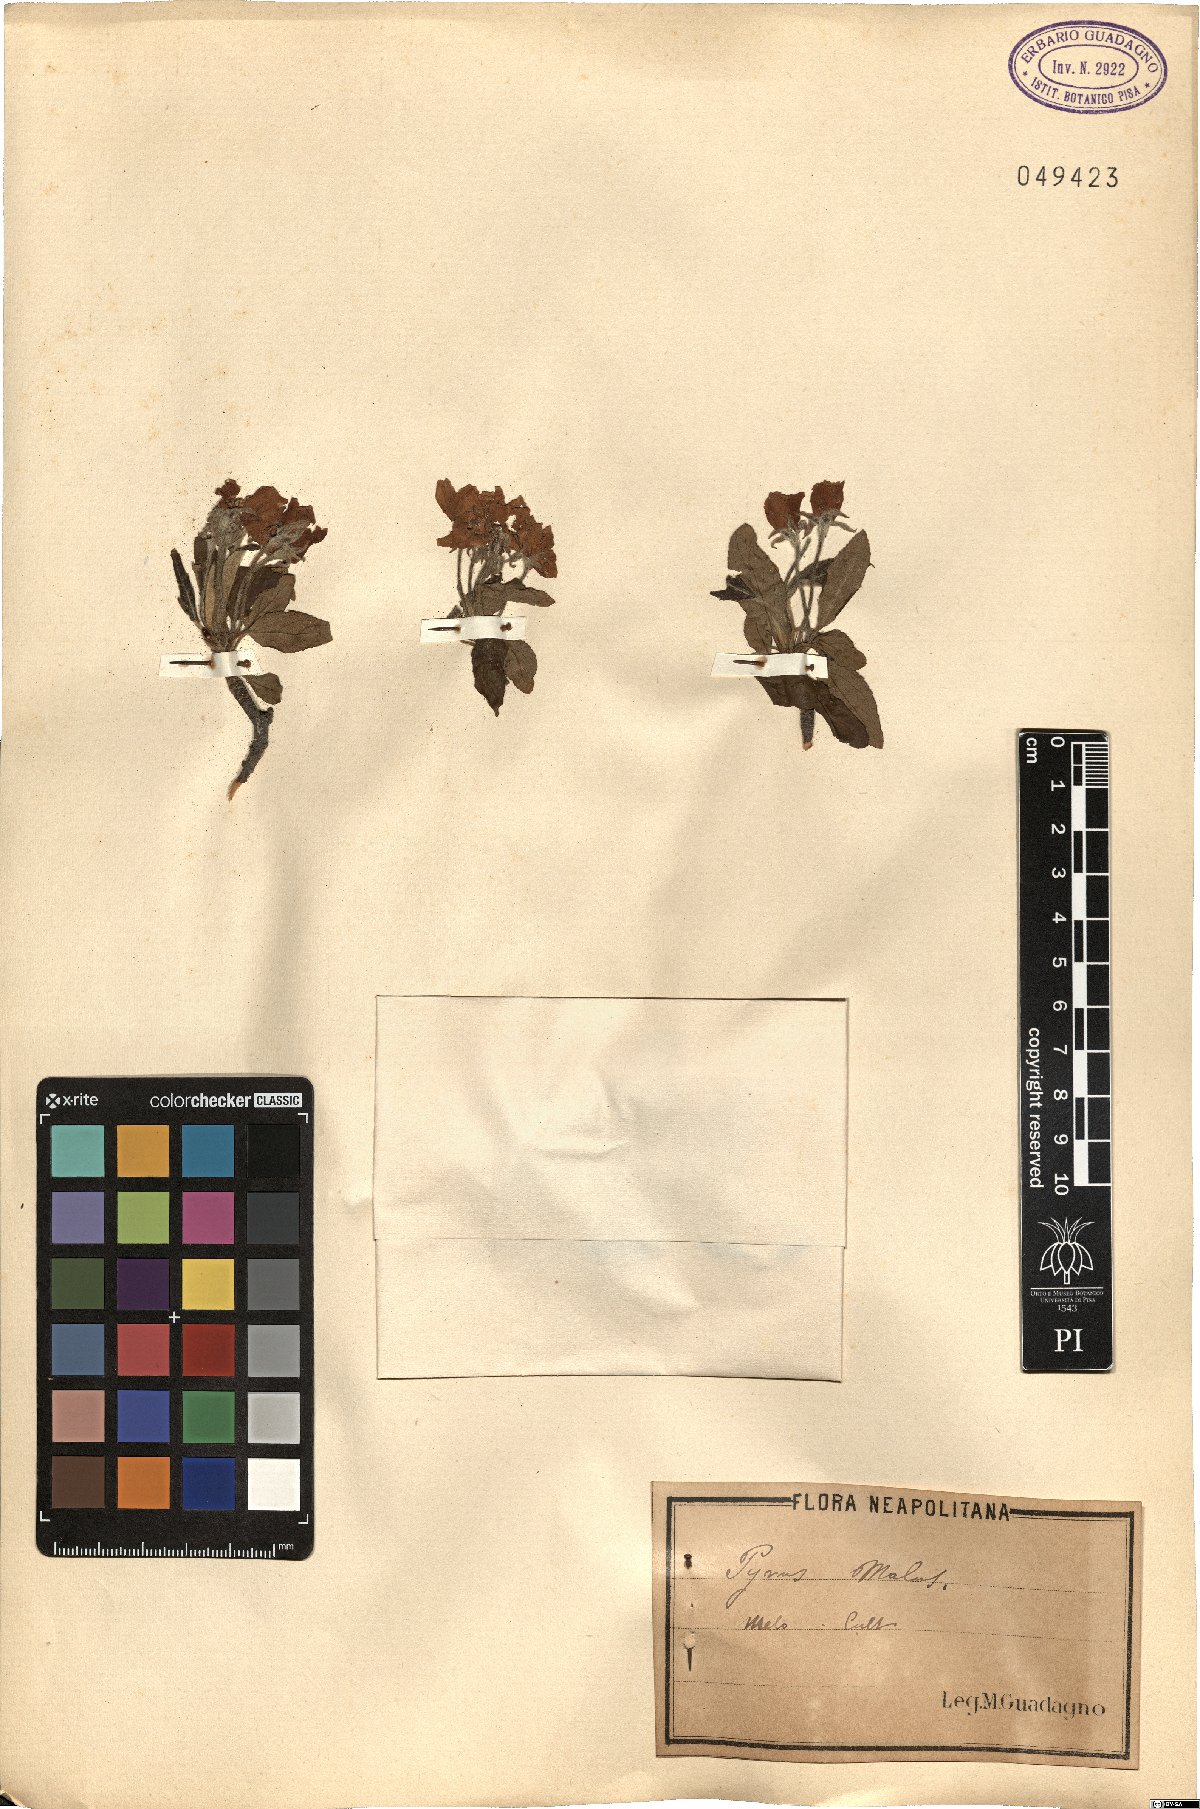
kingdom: Plantae
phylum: Tracheophyta
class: Magnoliopsida
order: Rosales
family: Rosaceae
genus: Malus
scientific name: Malus domestica
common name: Apple
